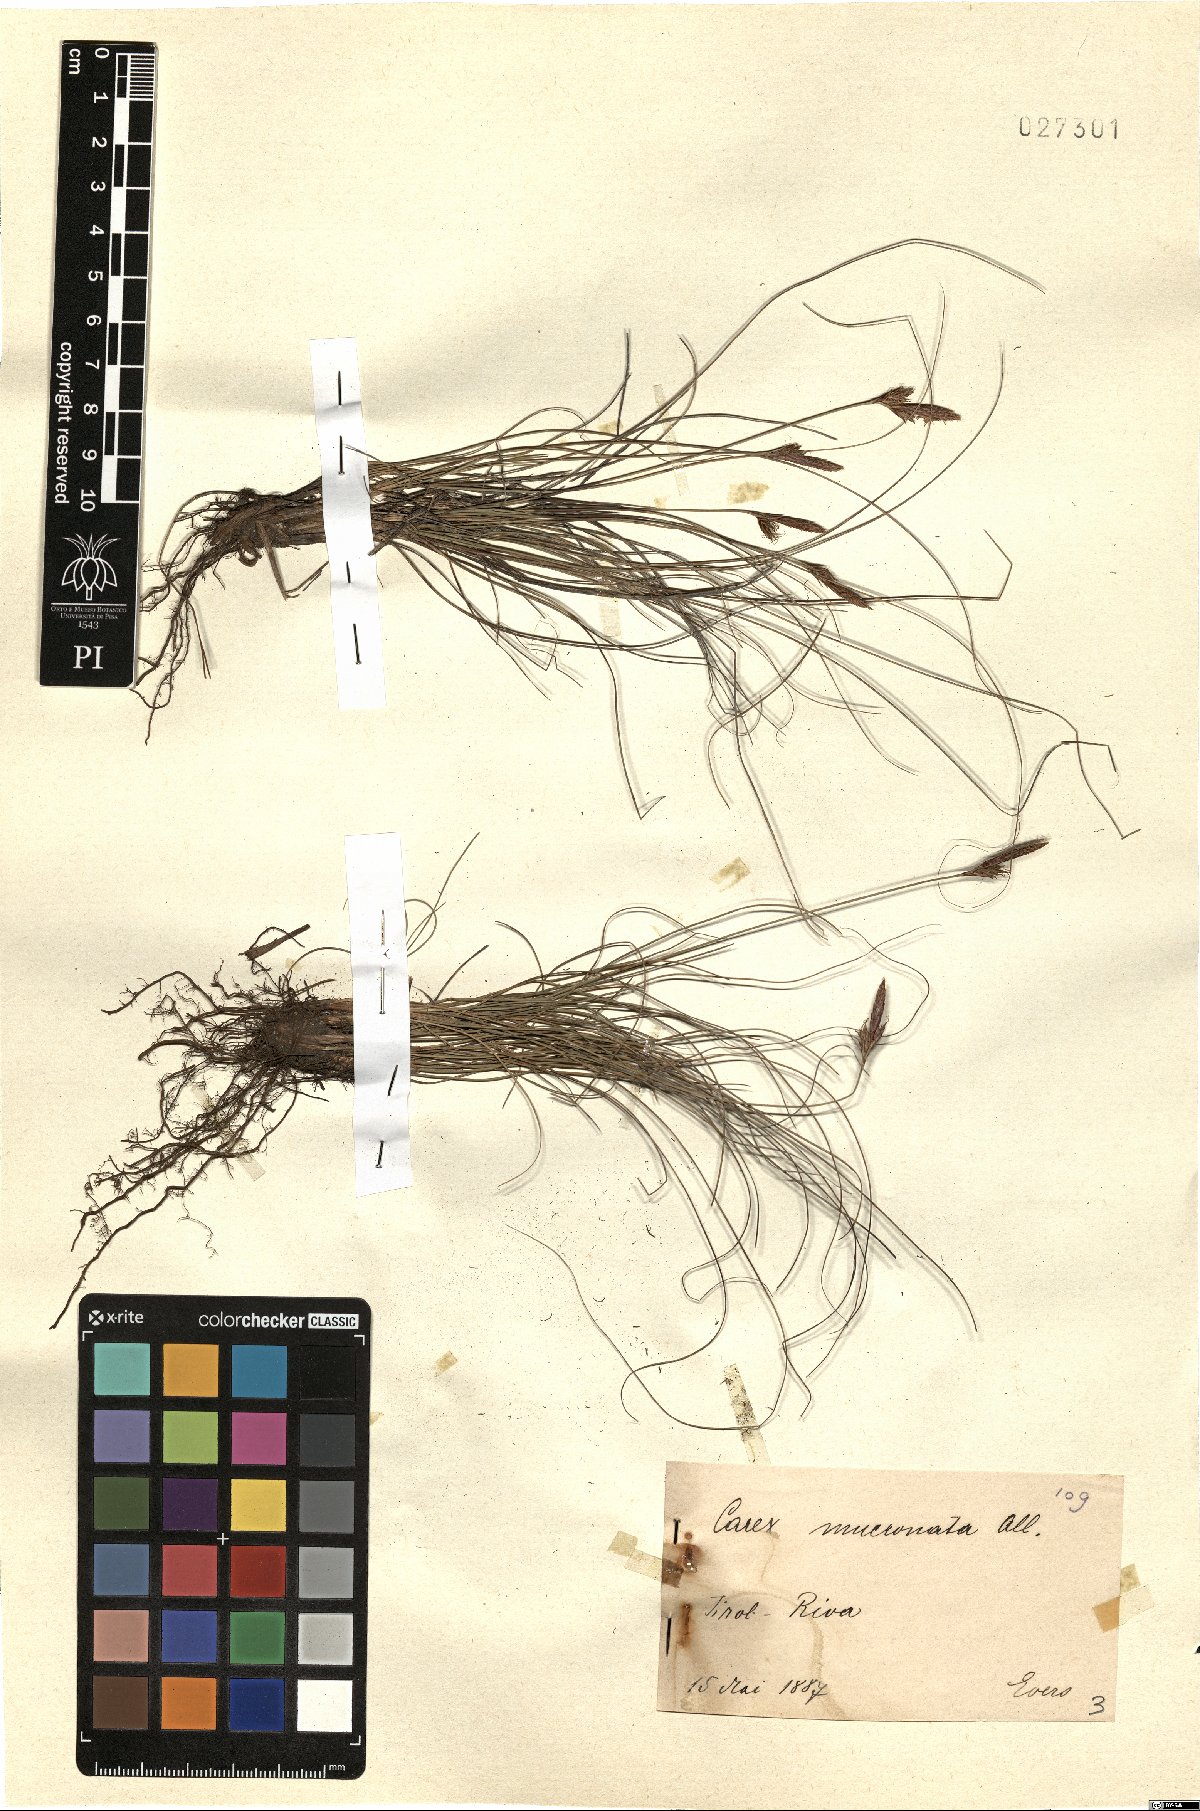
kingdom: Plantae
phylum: Tracheophyta
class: Liliopsida
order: Poales
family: Cyperaceae
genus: Carex
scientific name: Carex mucronata
